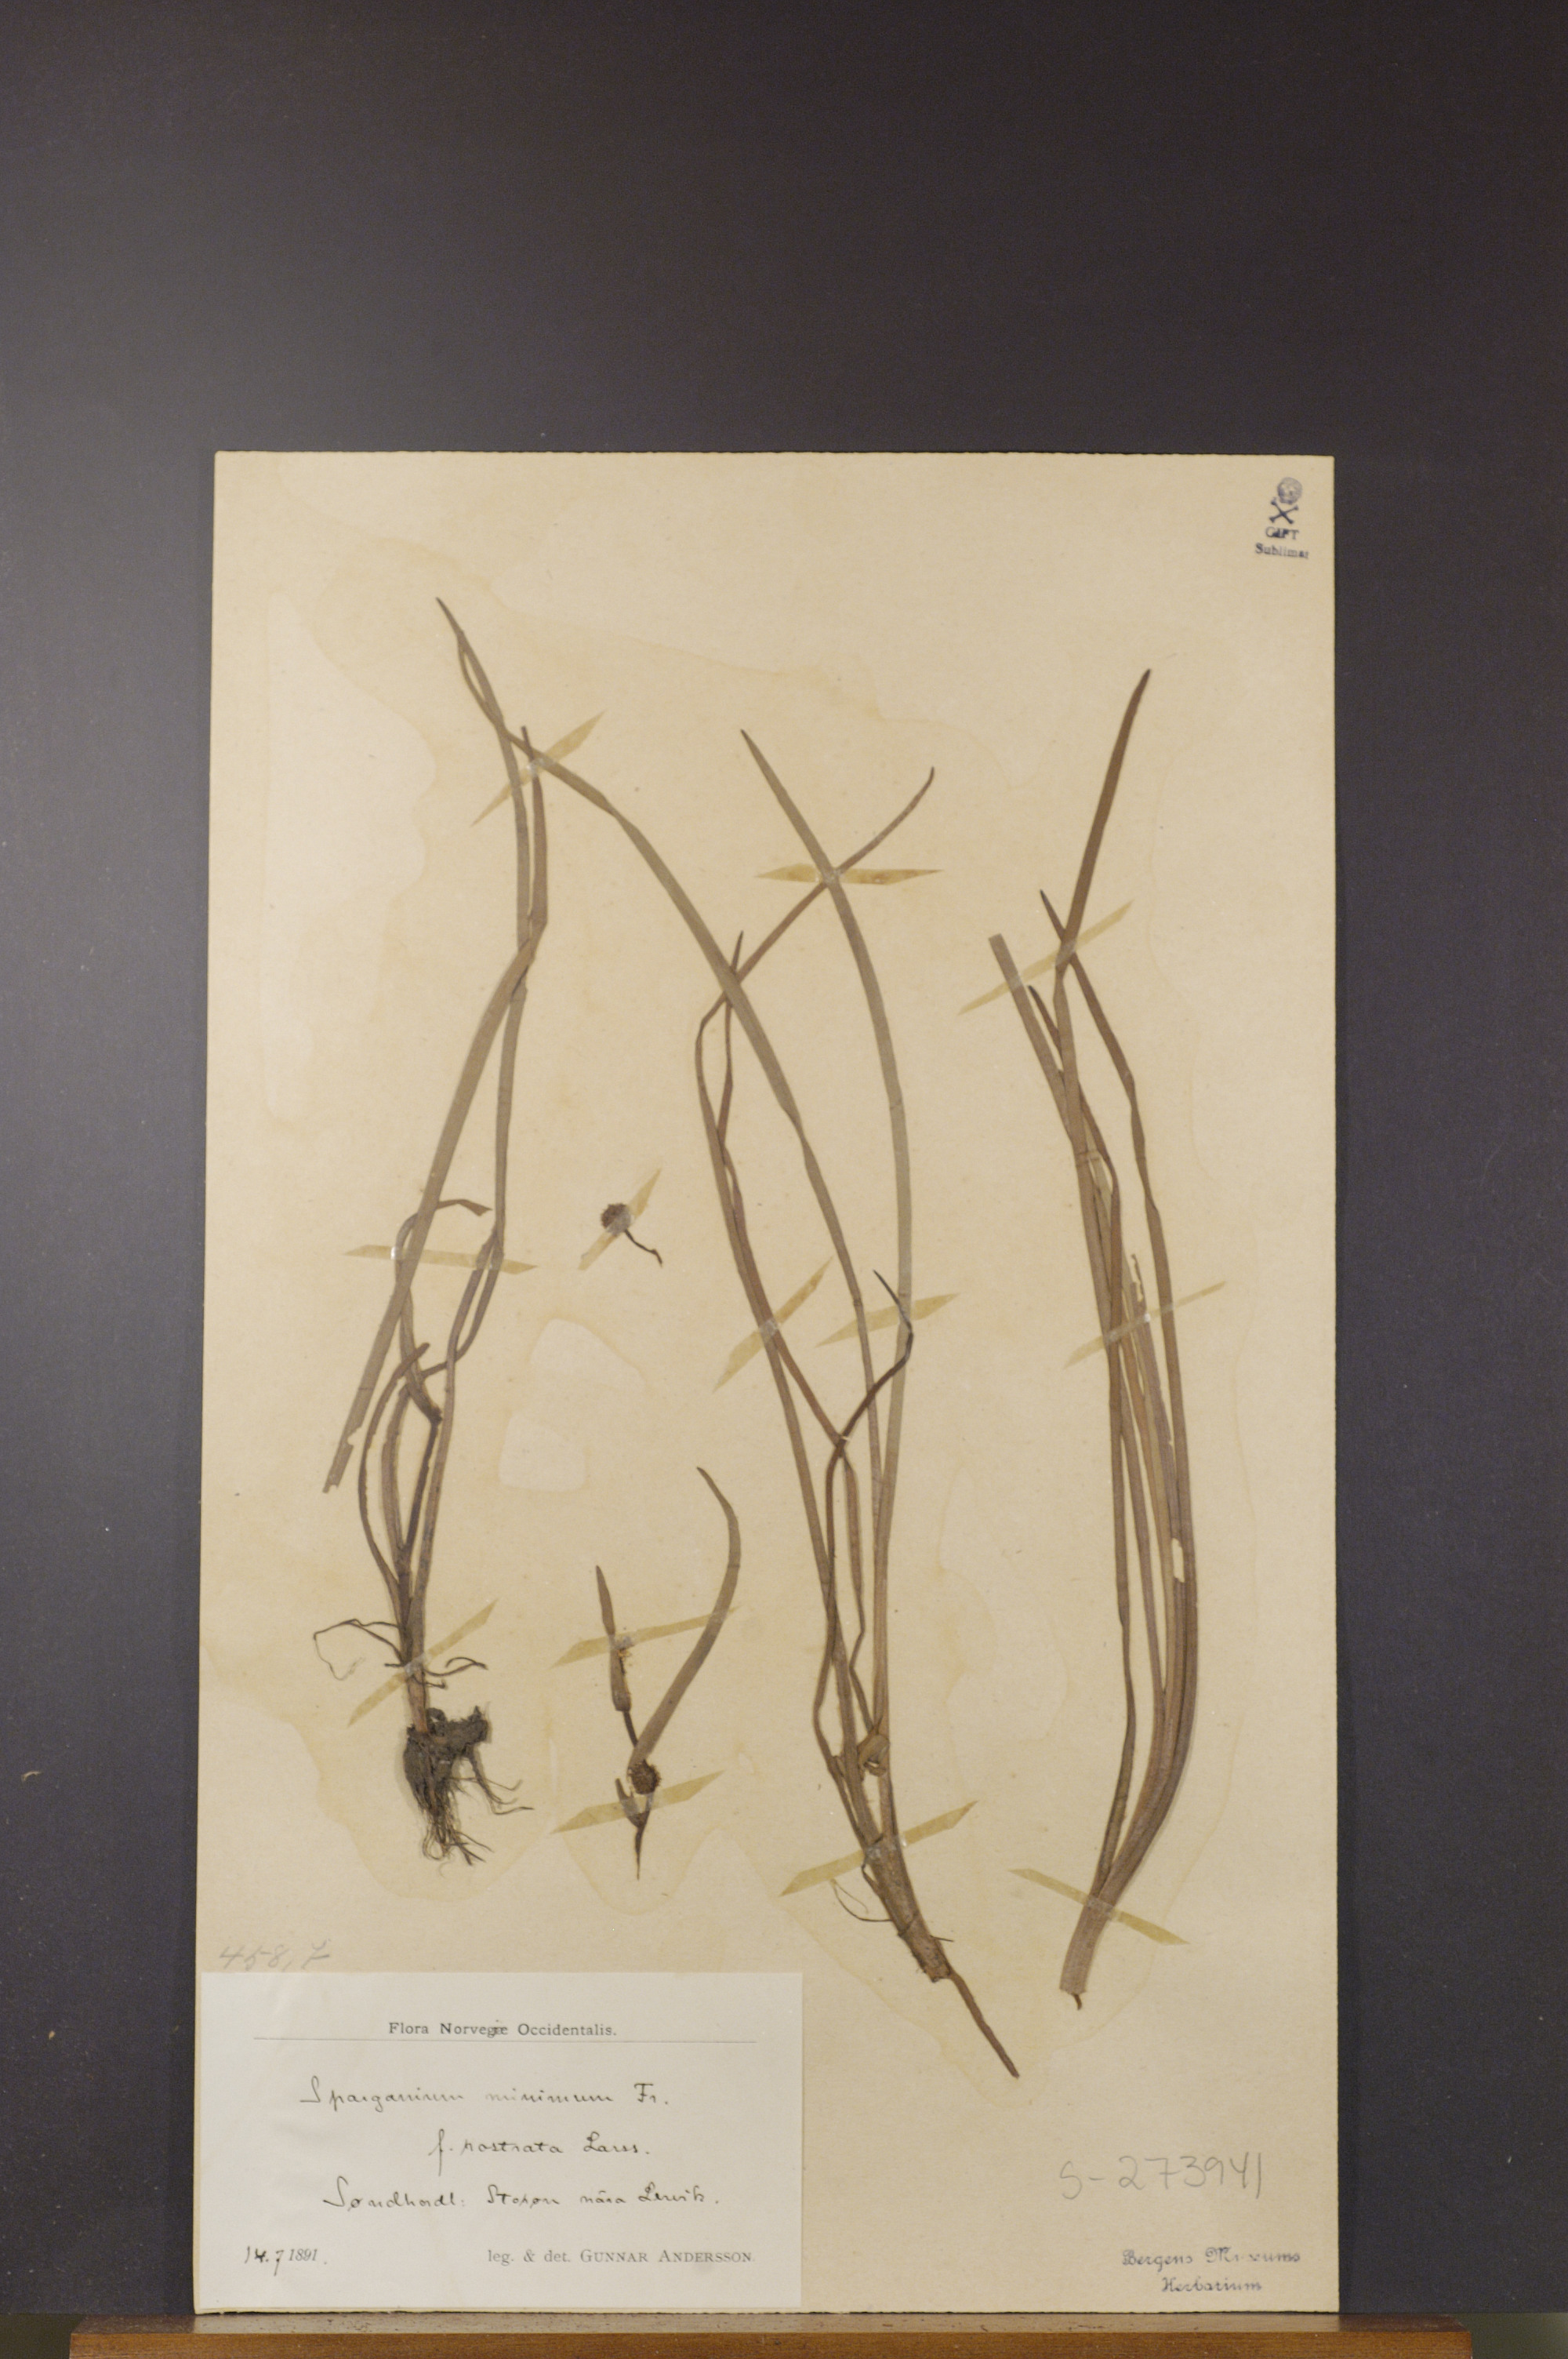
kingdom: Plantae
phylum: Tracheophyta
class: Liliopsida
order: Poales
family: Typhaceae
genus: Sparganium
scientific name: Sparganium natans
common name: Least bur-reed
